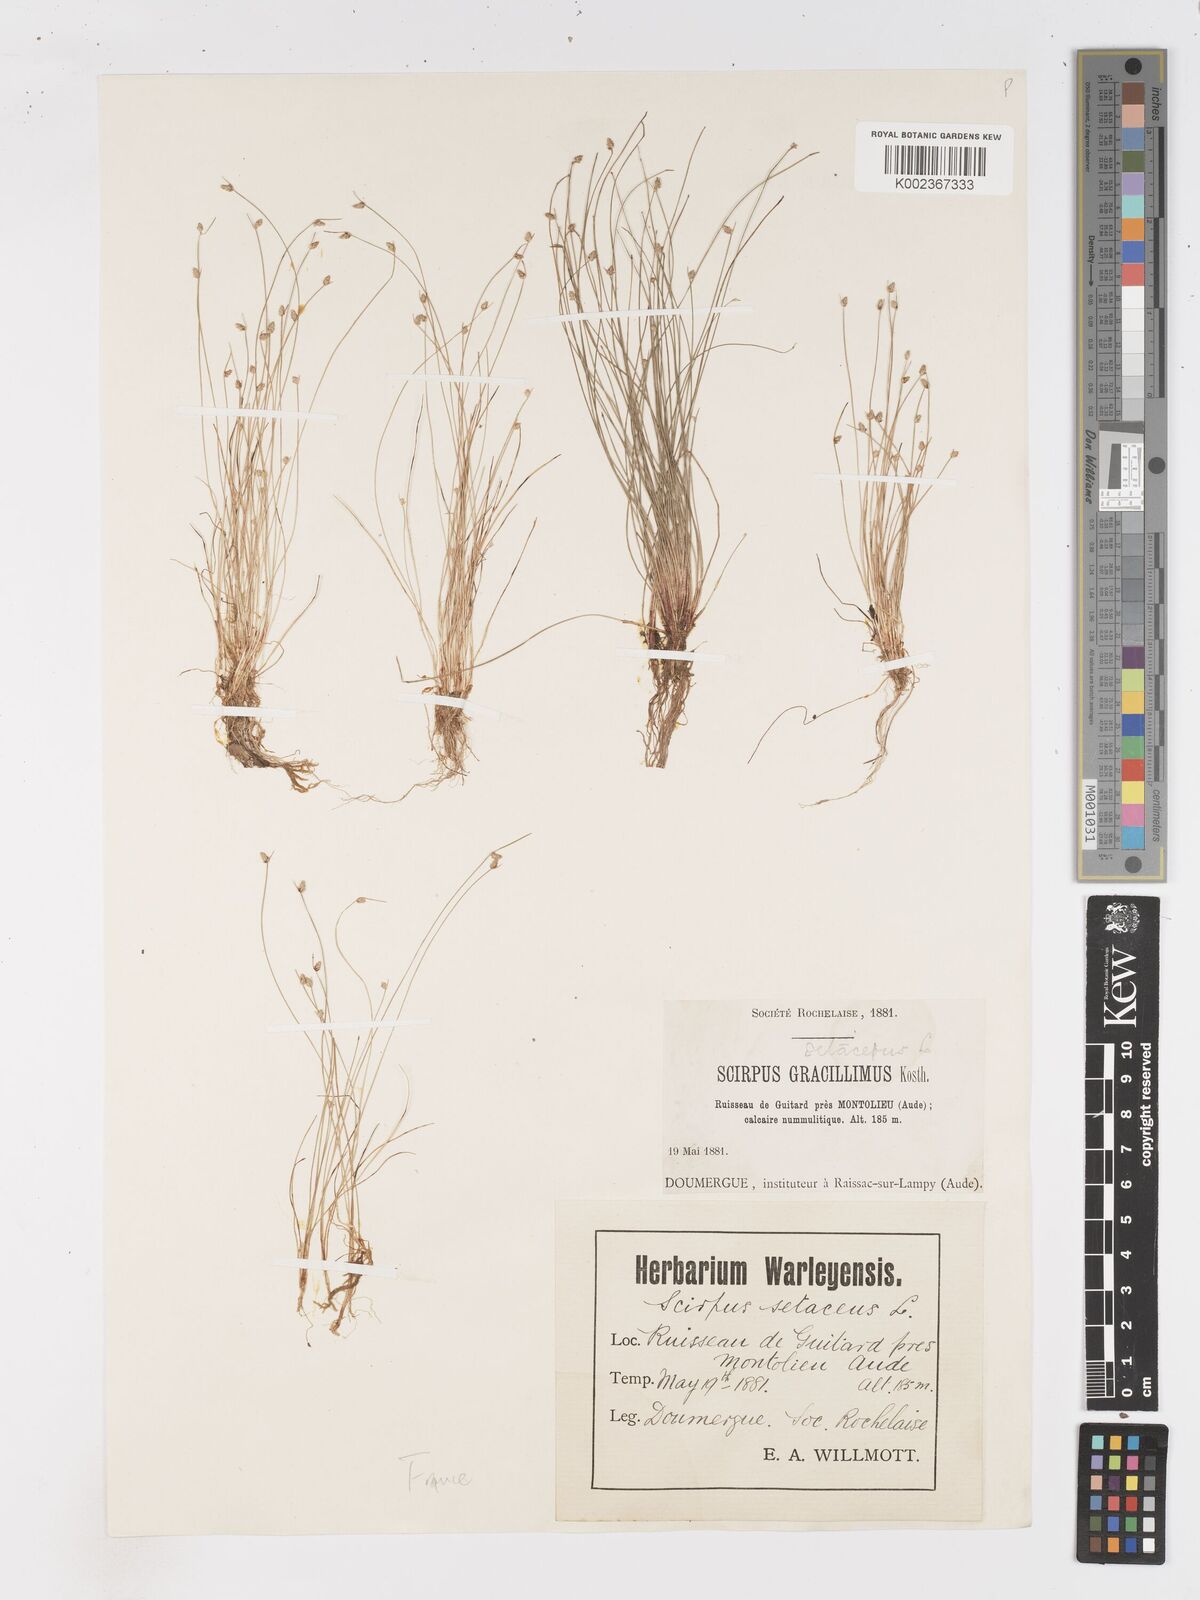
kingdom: Plantae
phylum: Tracheophyta
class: Liliopsida
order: Poales
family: Cyperaceae
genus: Isolepis
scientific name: Isolepis cernua
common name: Slender club-rush
